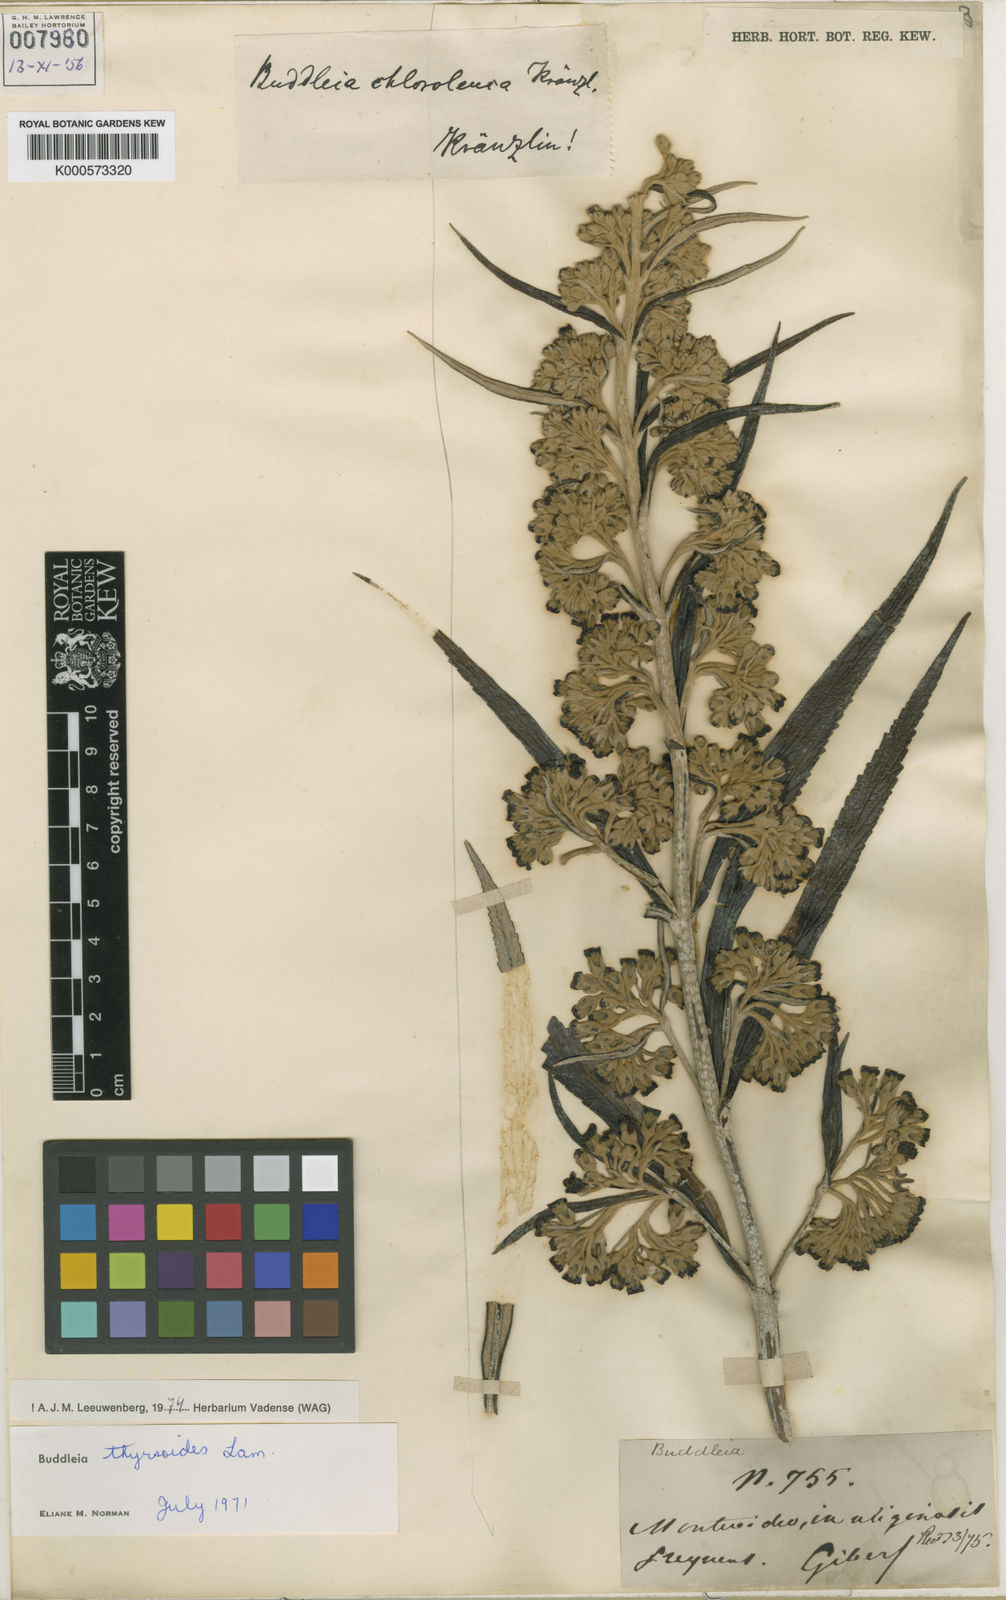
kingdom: Plantae
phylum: Tracheophyta
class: Magnoliopsida
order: Lamiales
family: Scrophulariaceae
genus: Buddleja
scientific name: Buddleja thyrsoides
